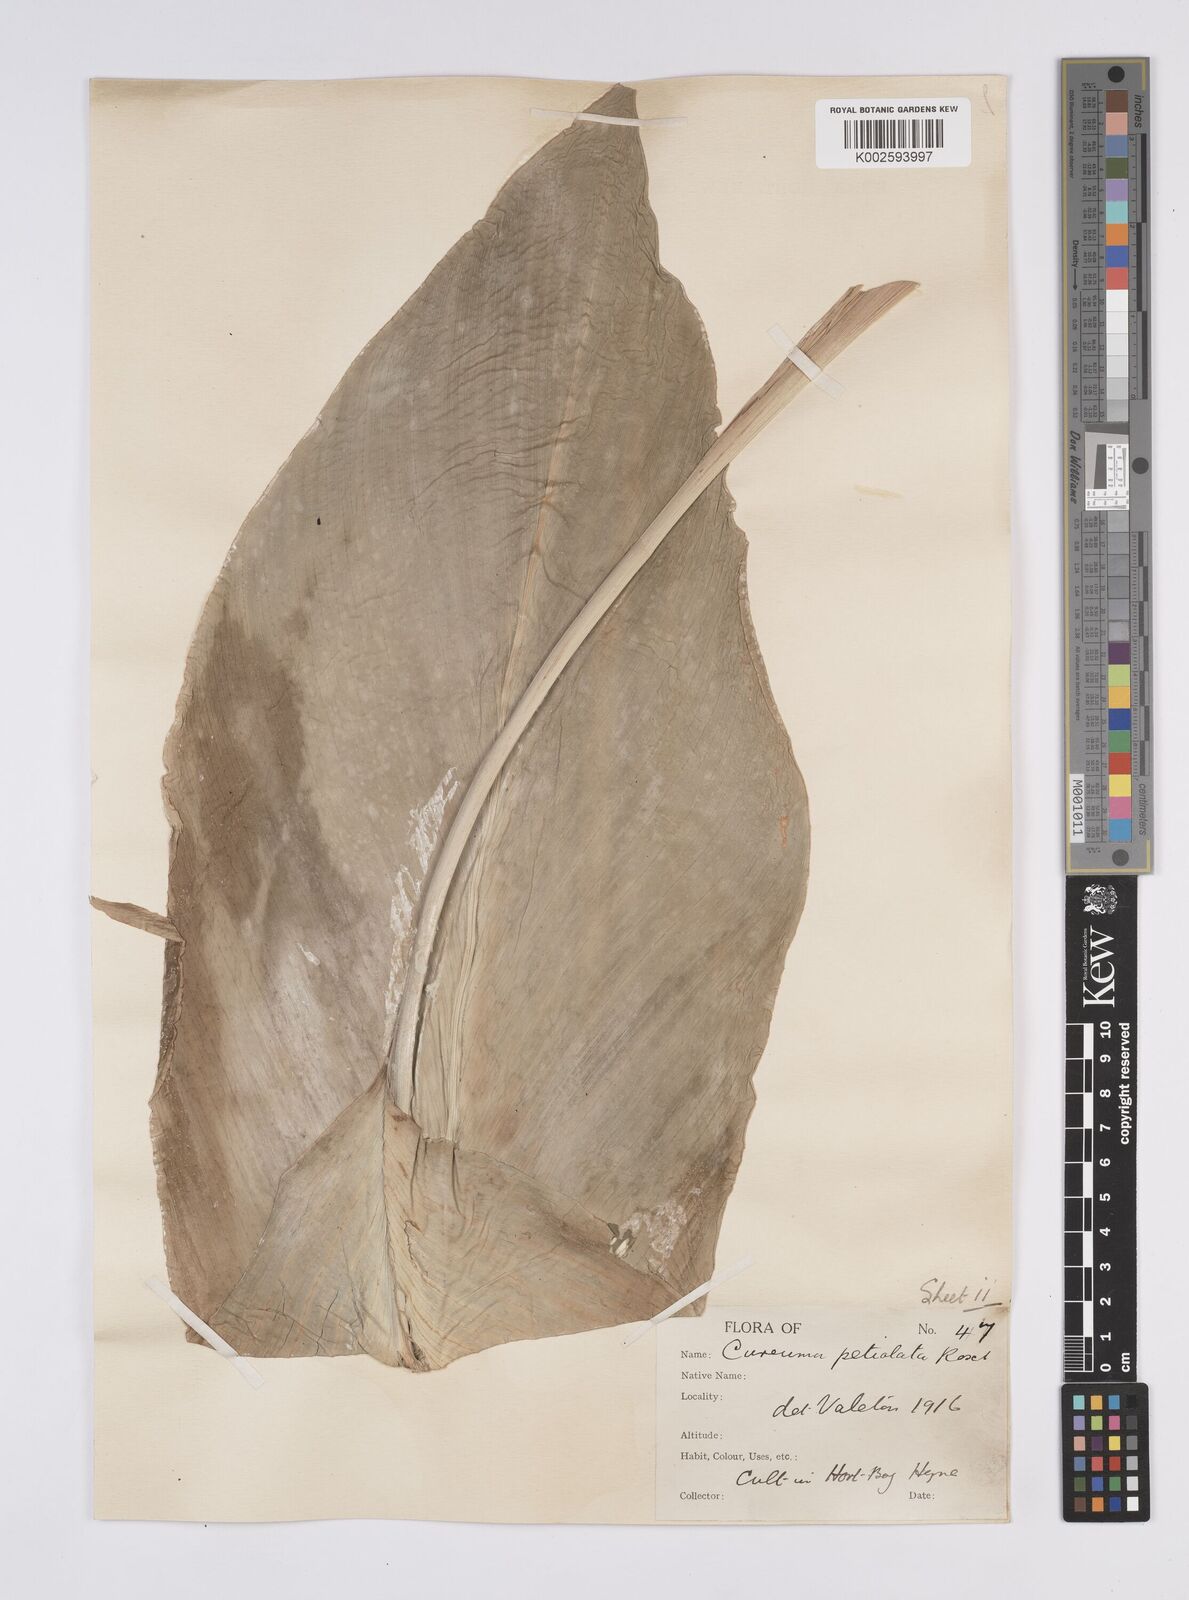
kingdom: Plantae
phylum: Tracheophyta
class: Liliopsida
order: Zingiberales
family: Zingiberaceae
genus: Curcuma
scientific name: Curcuma petiolata
